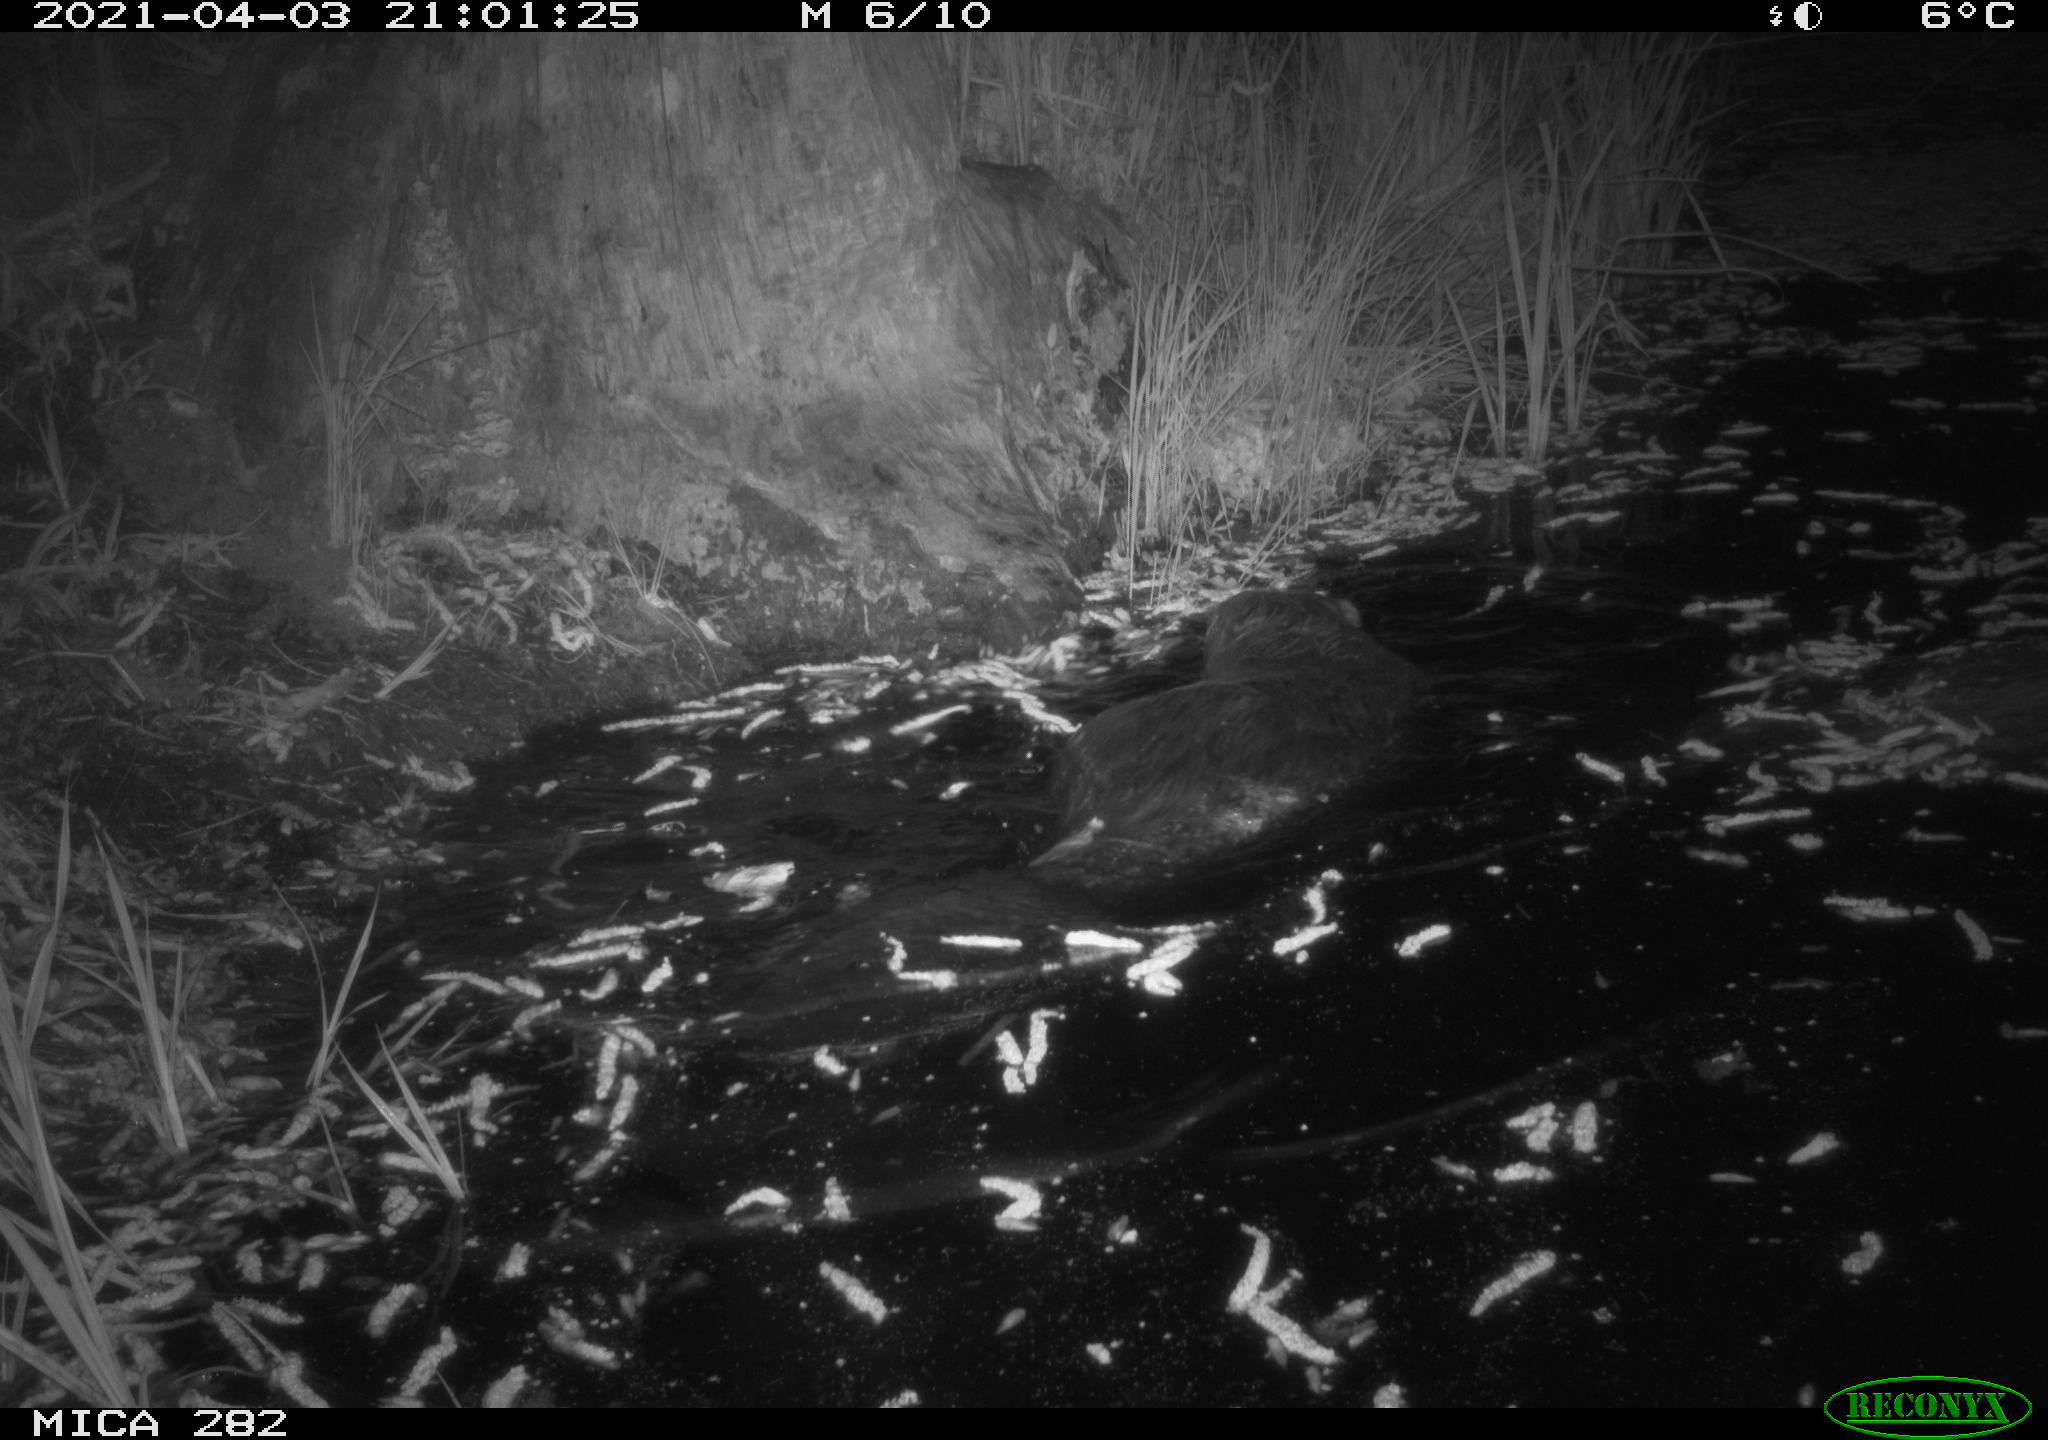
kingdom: Animalia
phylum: Chordata
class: Mammalia
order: Rodentia
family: Castoridae
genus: Castor
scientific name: Castor fiber
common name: Eurasian beaver
